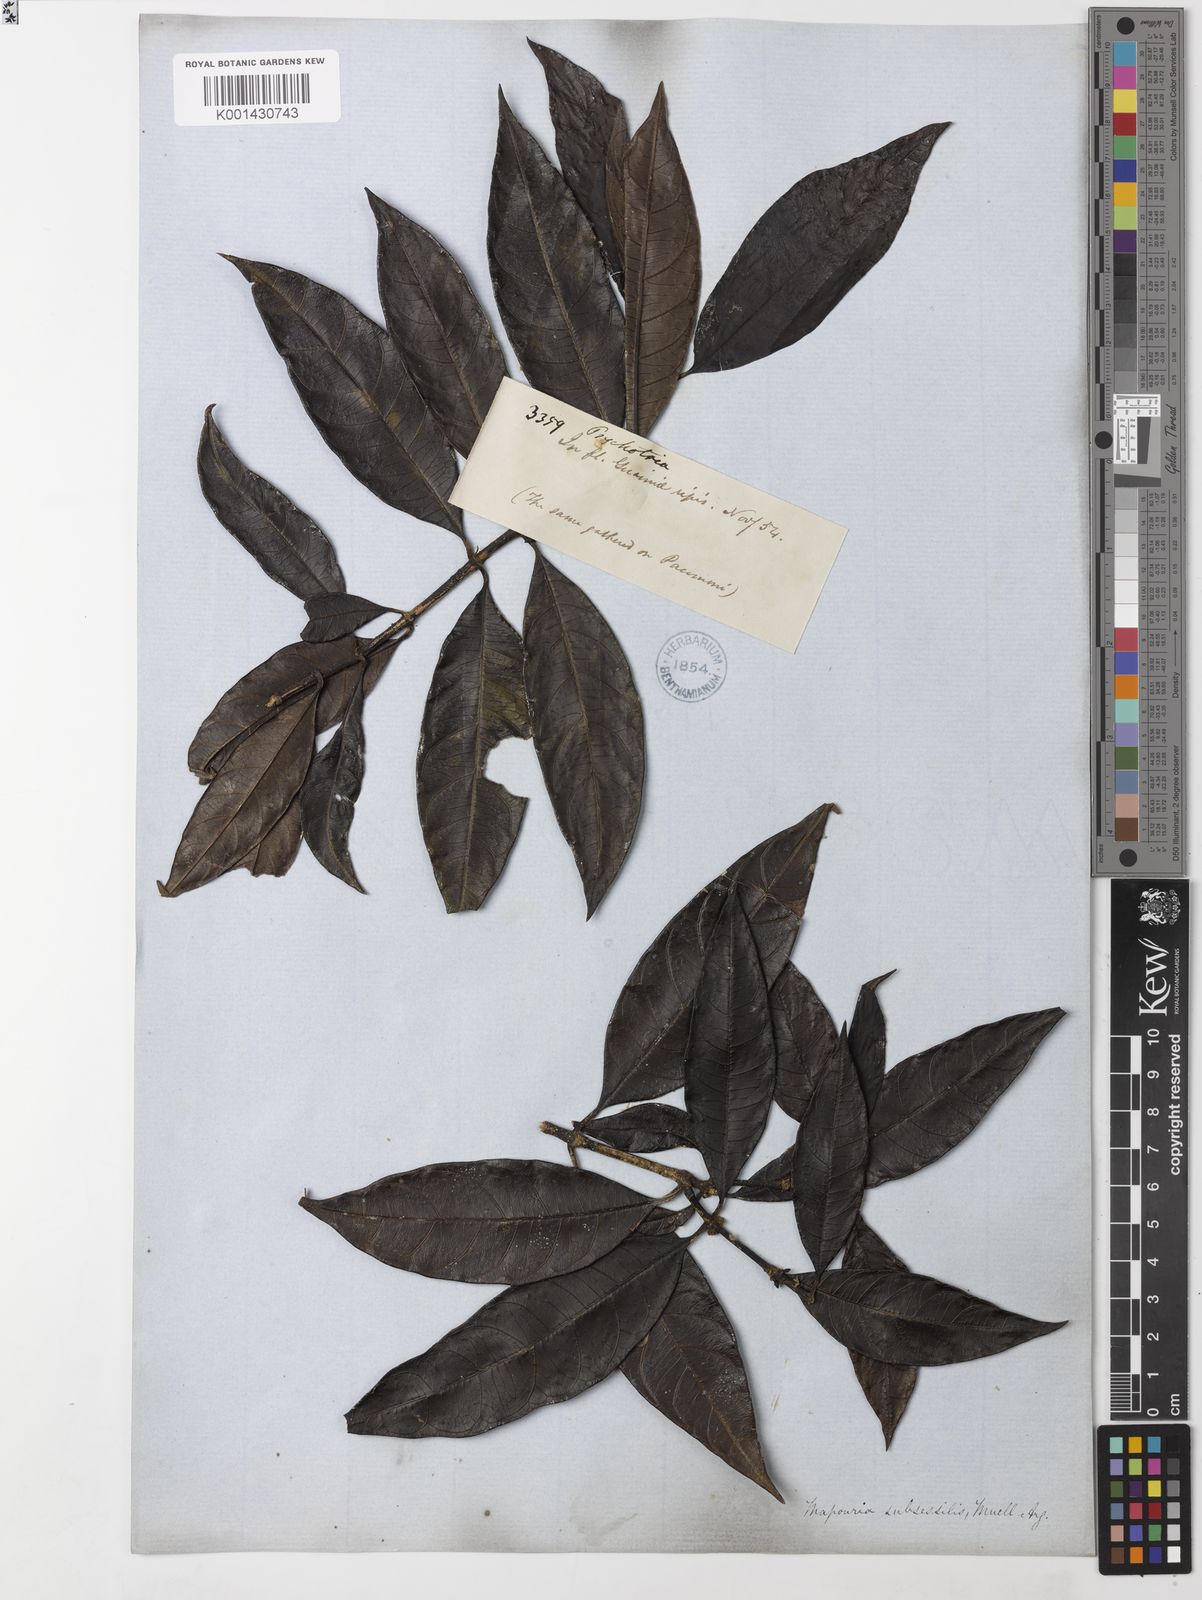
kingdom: Plantae
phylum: Tracheophyta
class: Magnoliopsida
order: Gentianales
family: Rubiaceae
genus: Ronabea
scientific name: Ronabea latifolia
